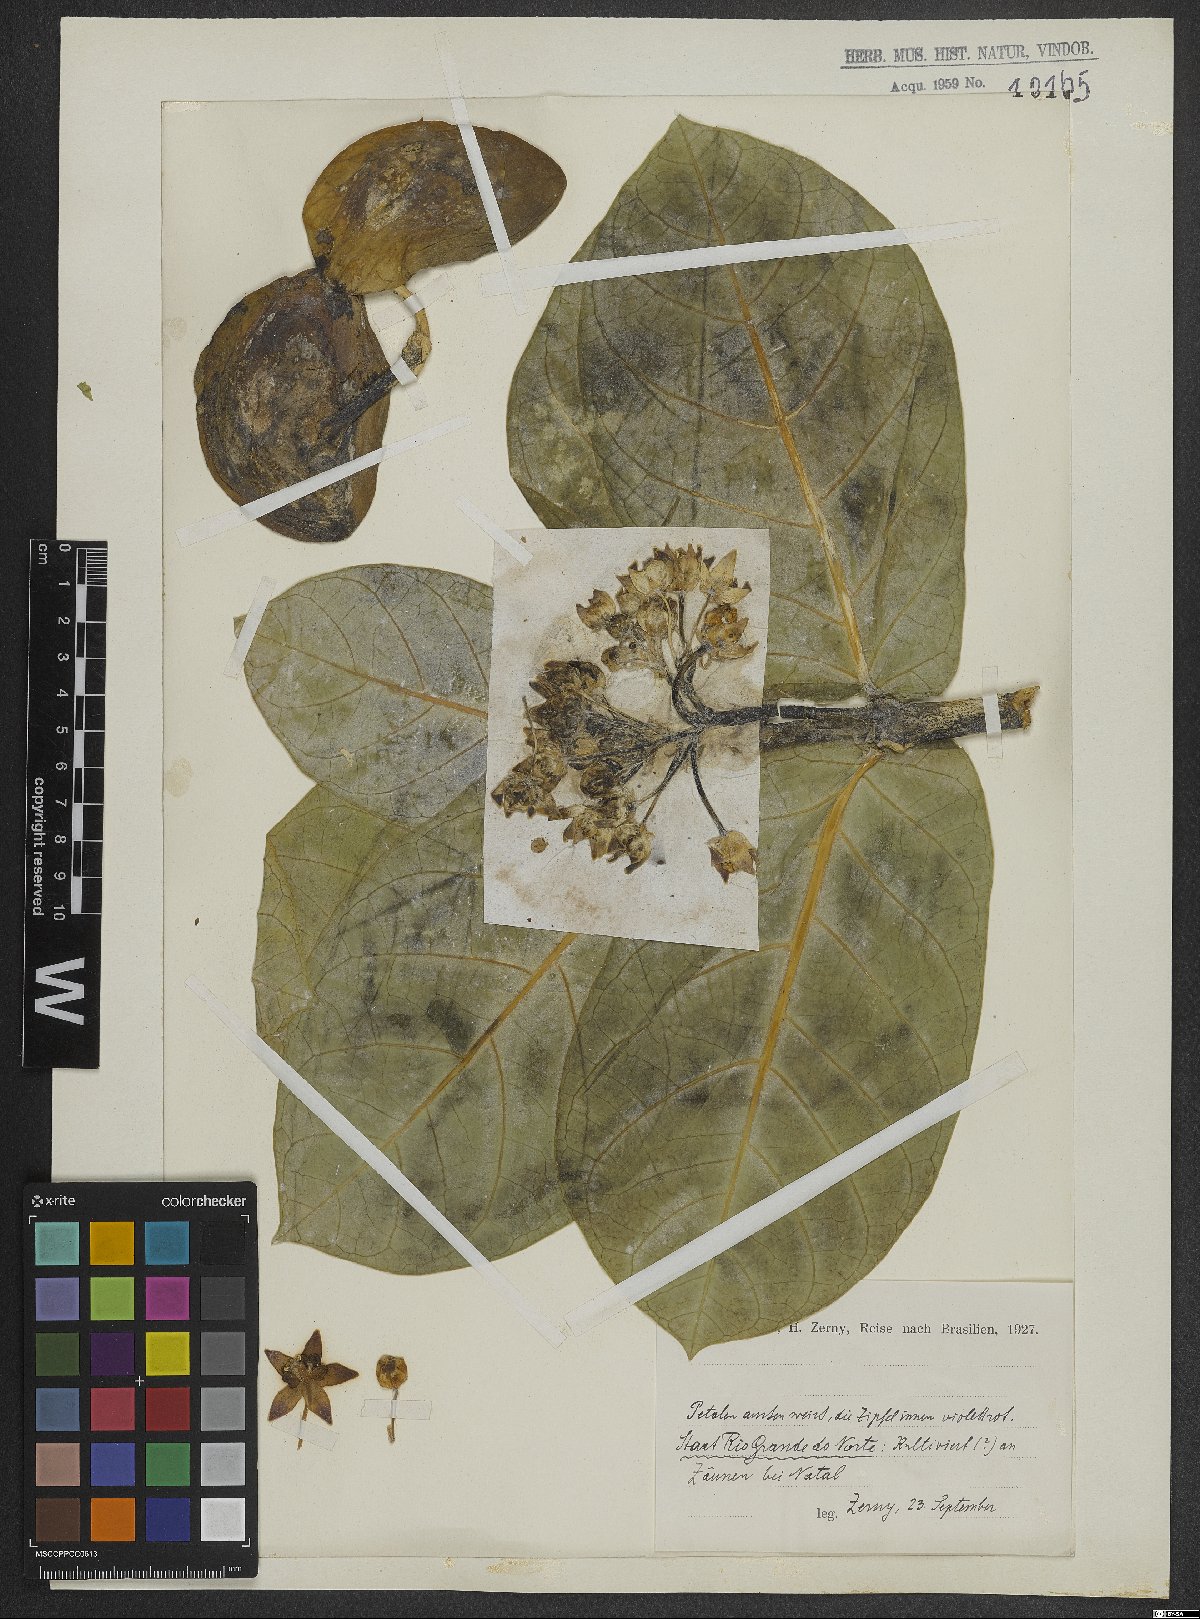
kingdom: Plantae
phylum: Tracheophyta
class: Magnoliopsida
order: Dipsacales
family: Valerianaceae
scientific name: Valerianaceae
